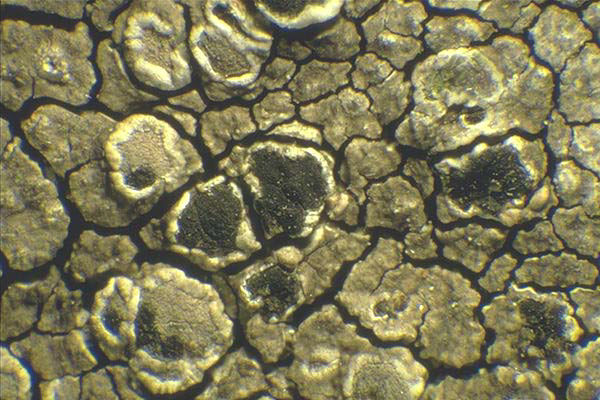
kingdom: Fungi
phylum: Ascomycota
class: Arthoniomycetes
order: Arthoniales
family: Arthoniaceae
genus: Arthonia
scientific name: Arthonia varians
